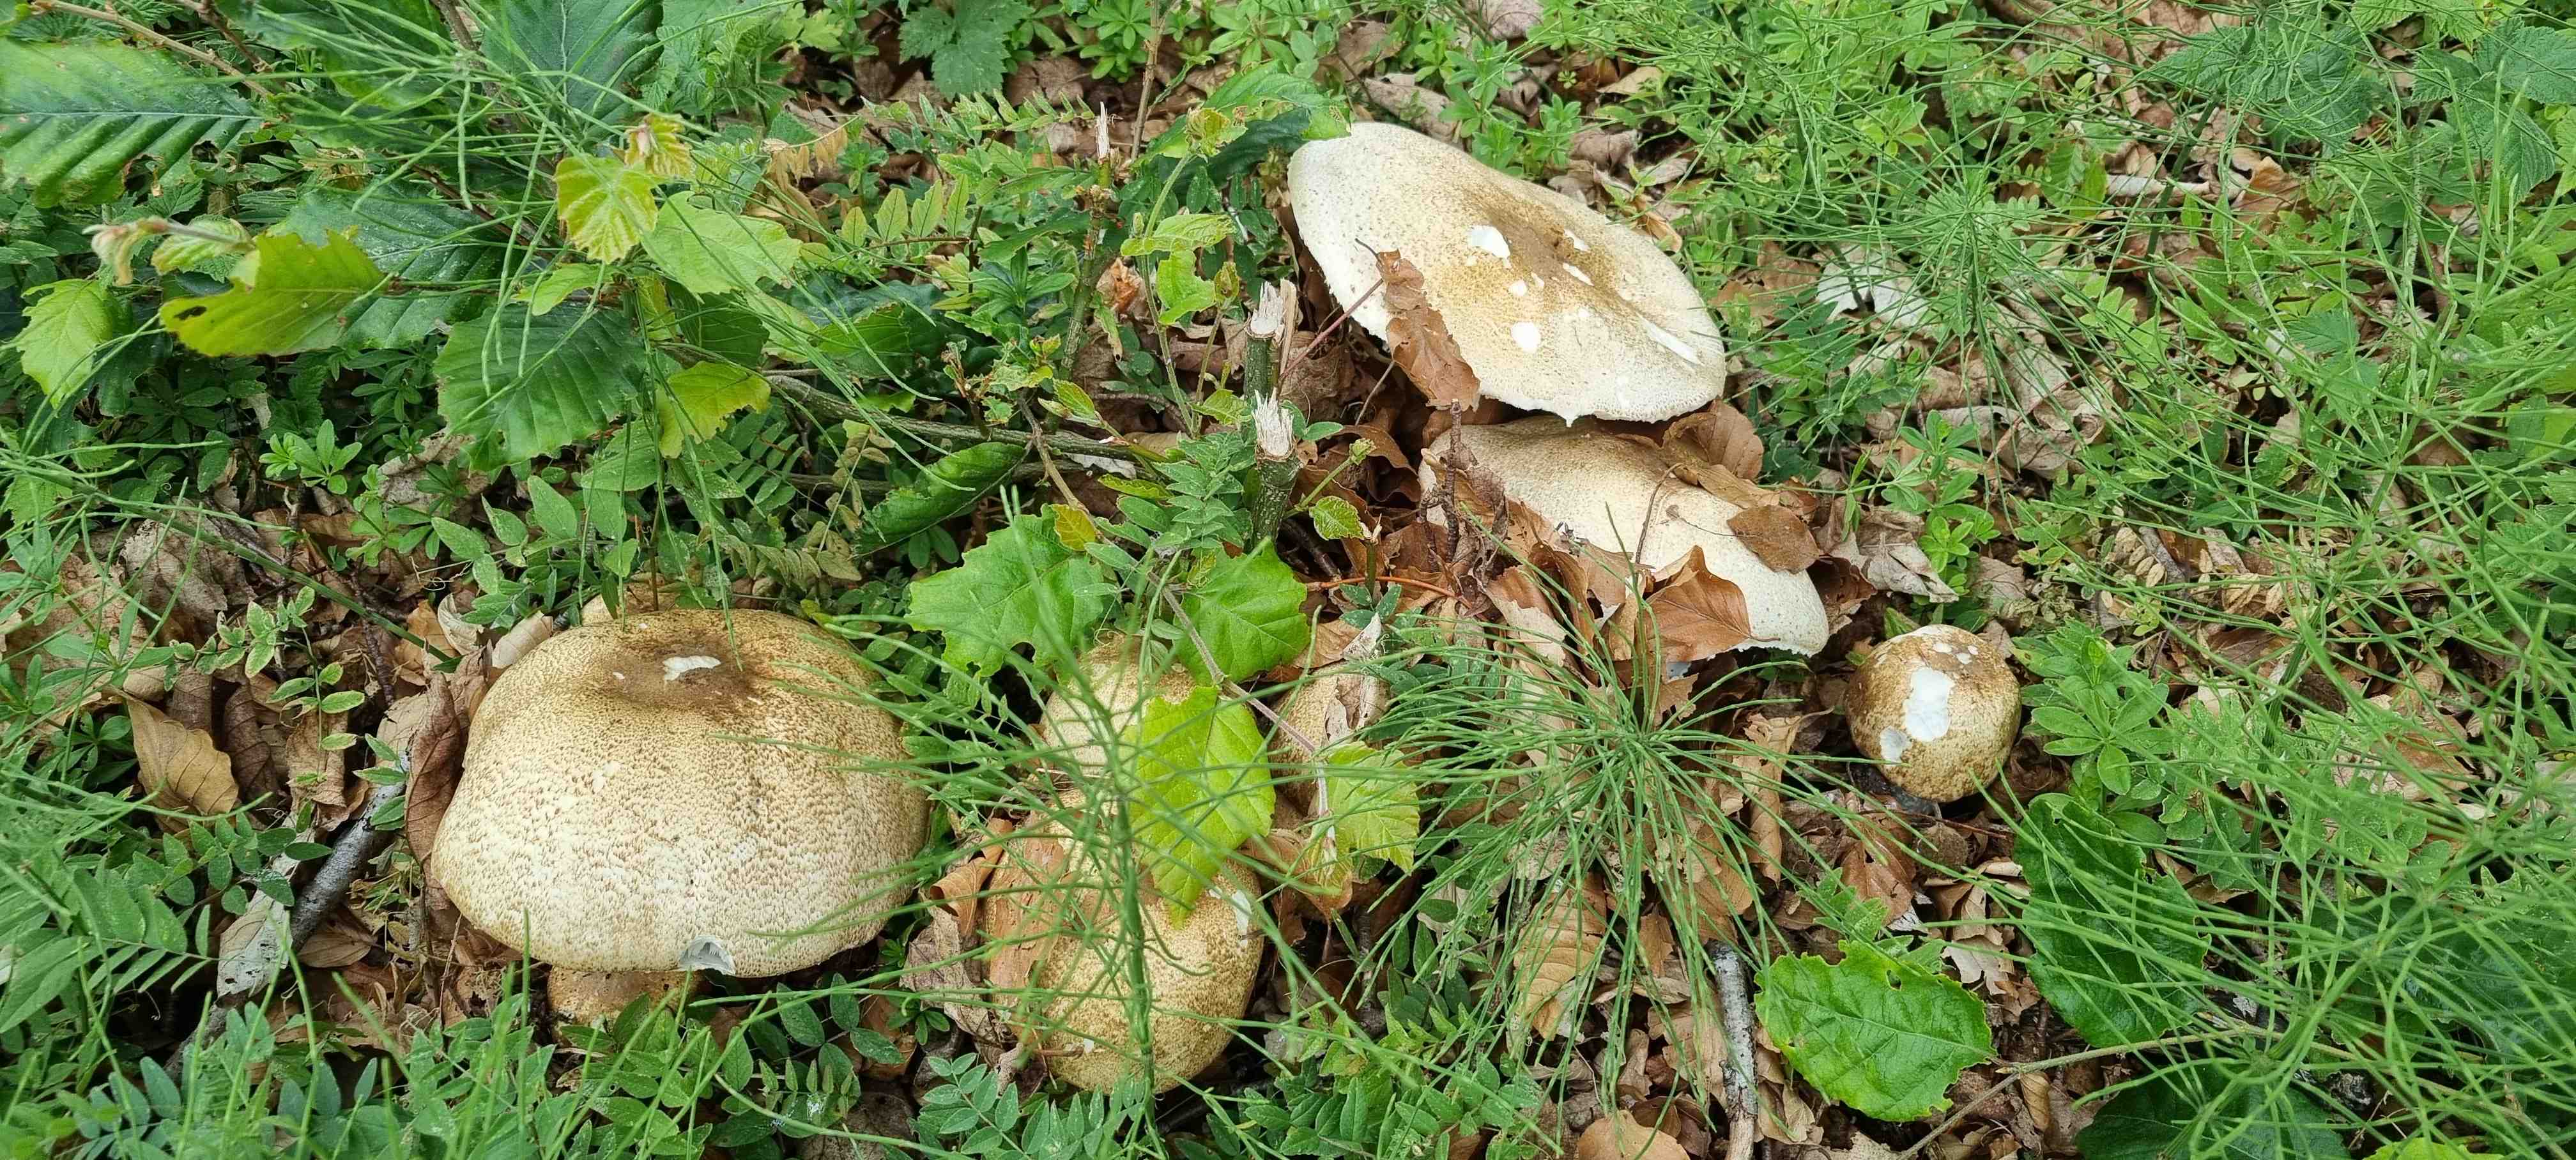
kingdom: Fungi
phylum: Basidiomycota
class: Agaricomycetes
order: Agaricales
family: Agaricaceae
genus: Agaricus
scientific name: Agaricus augustus
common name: prægtig champignon
